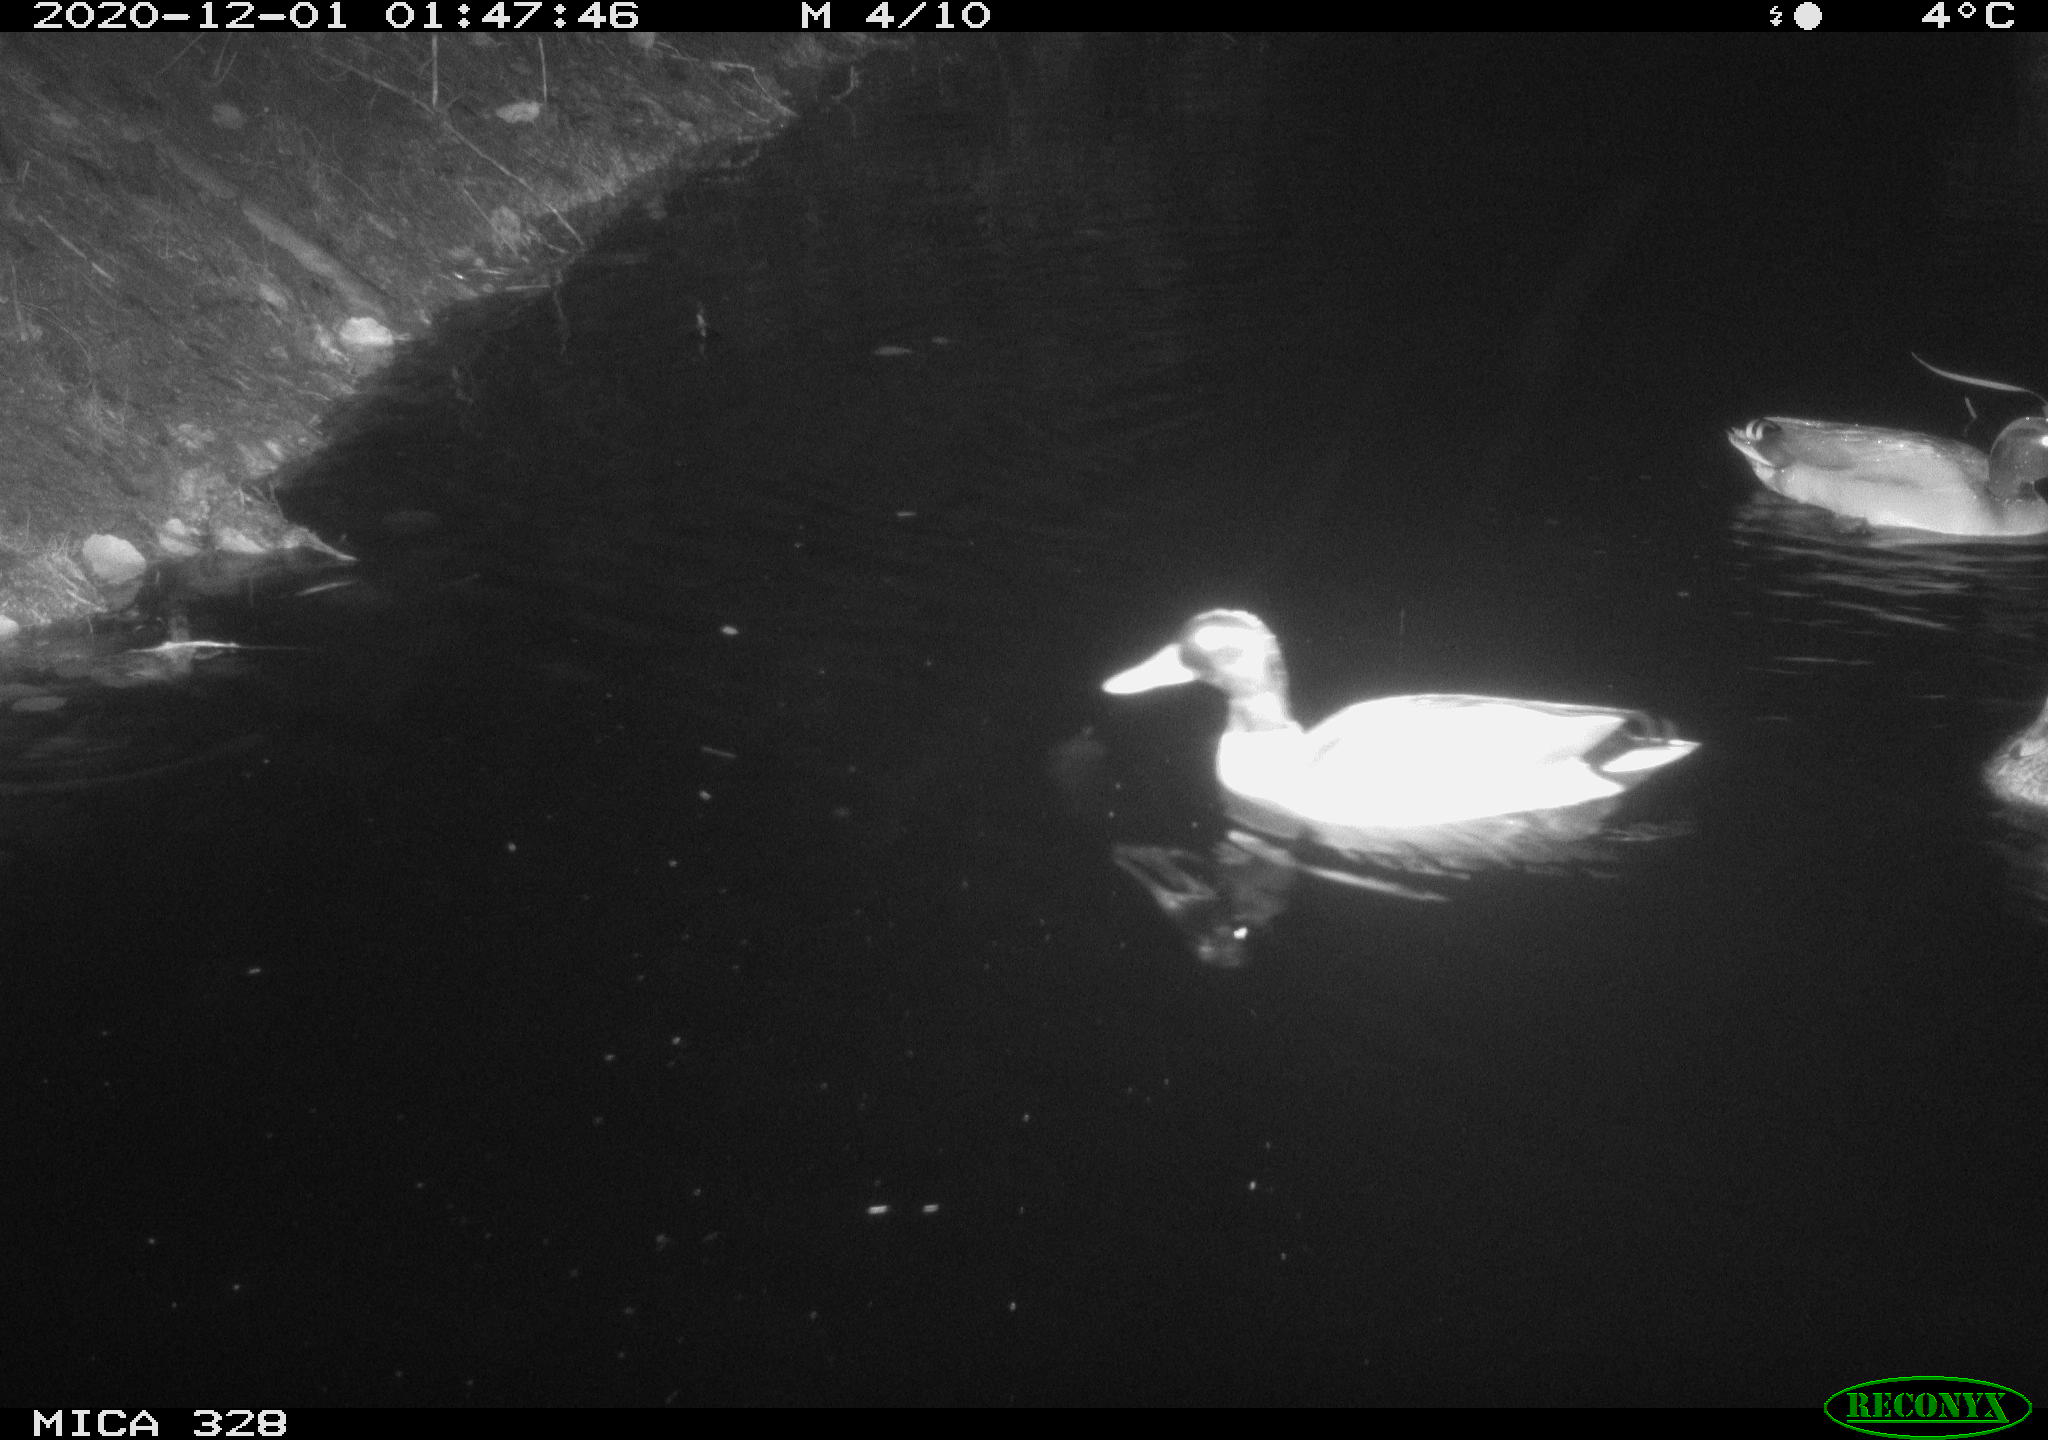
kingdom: Animalia
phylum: Chordata
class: Aves
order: Anseriformes
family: Anatidae
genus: Anas
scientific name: Anas platyrhynchos
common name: Mallard
